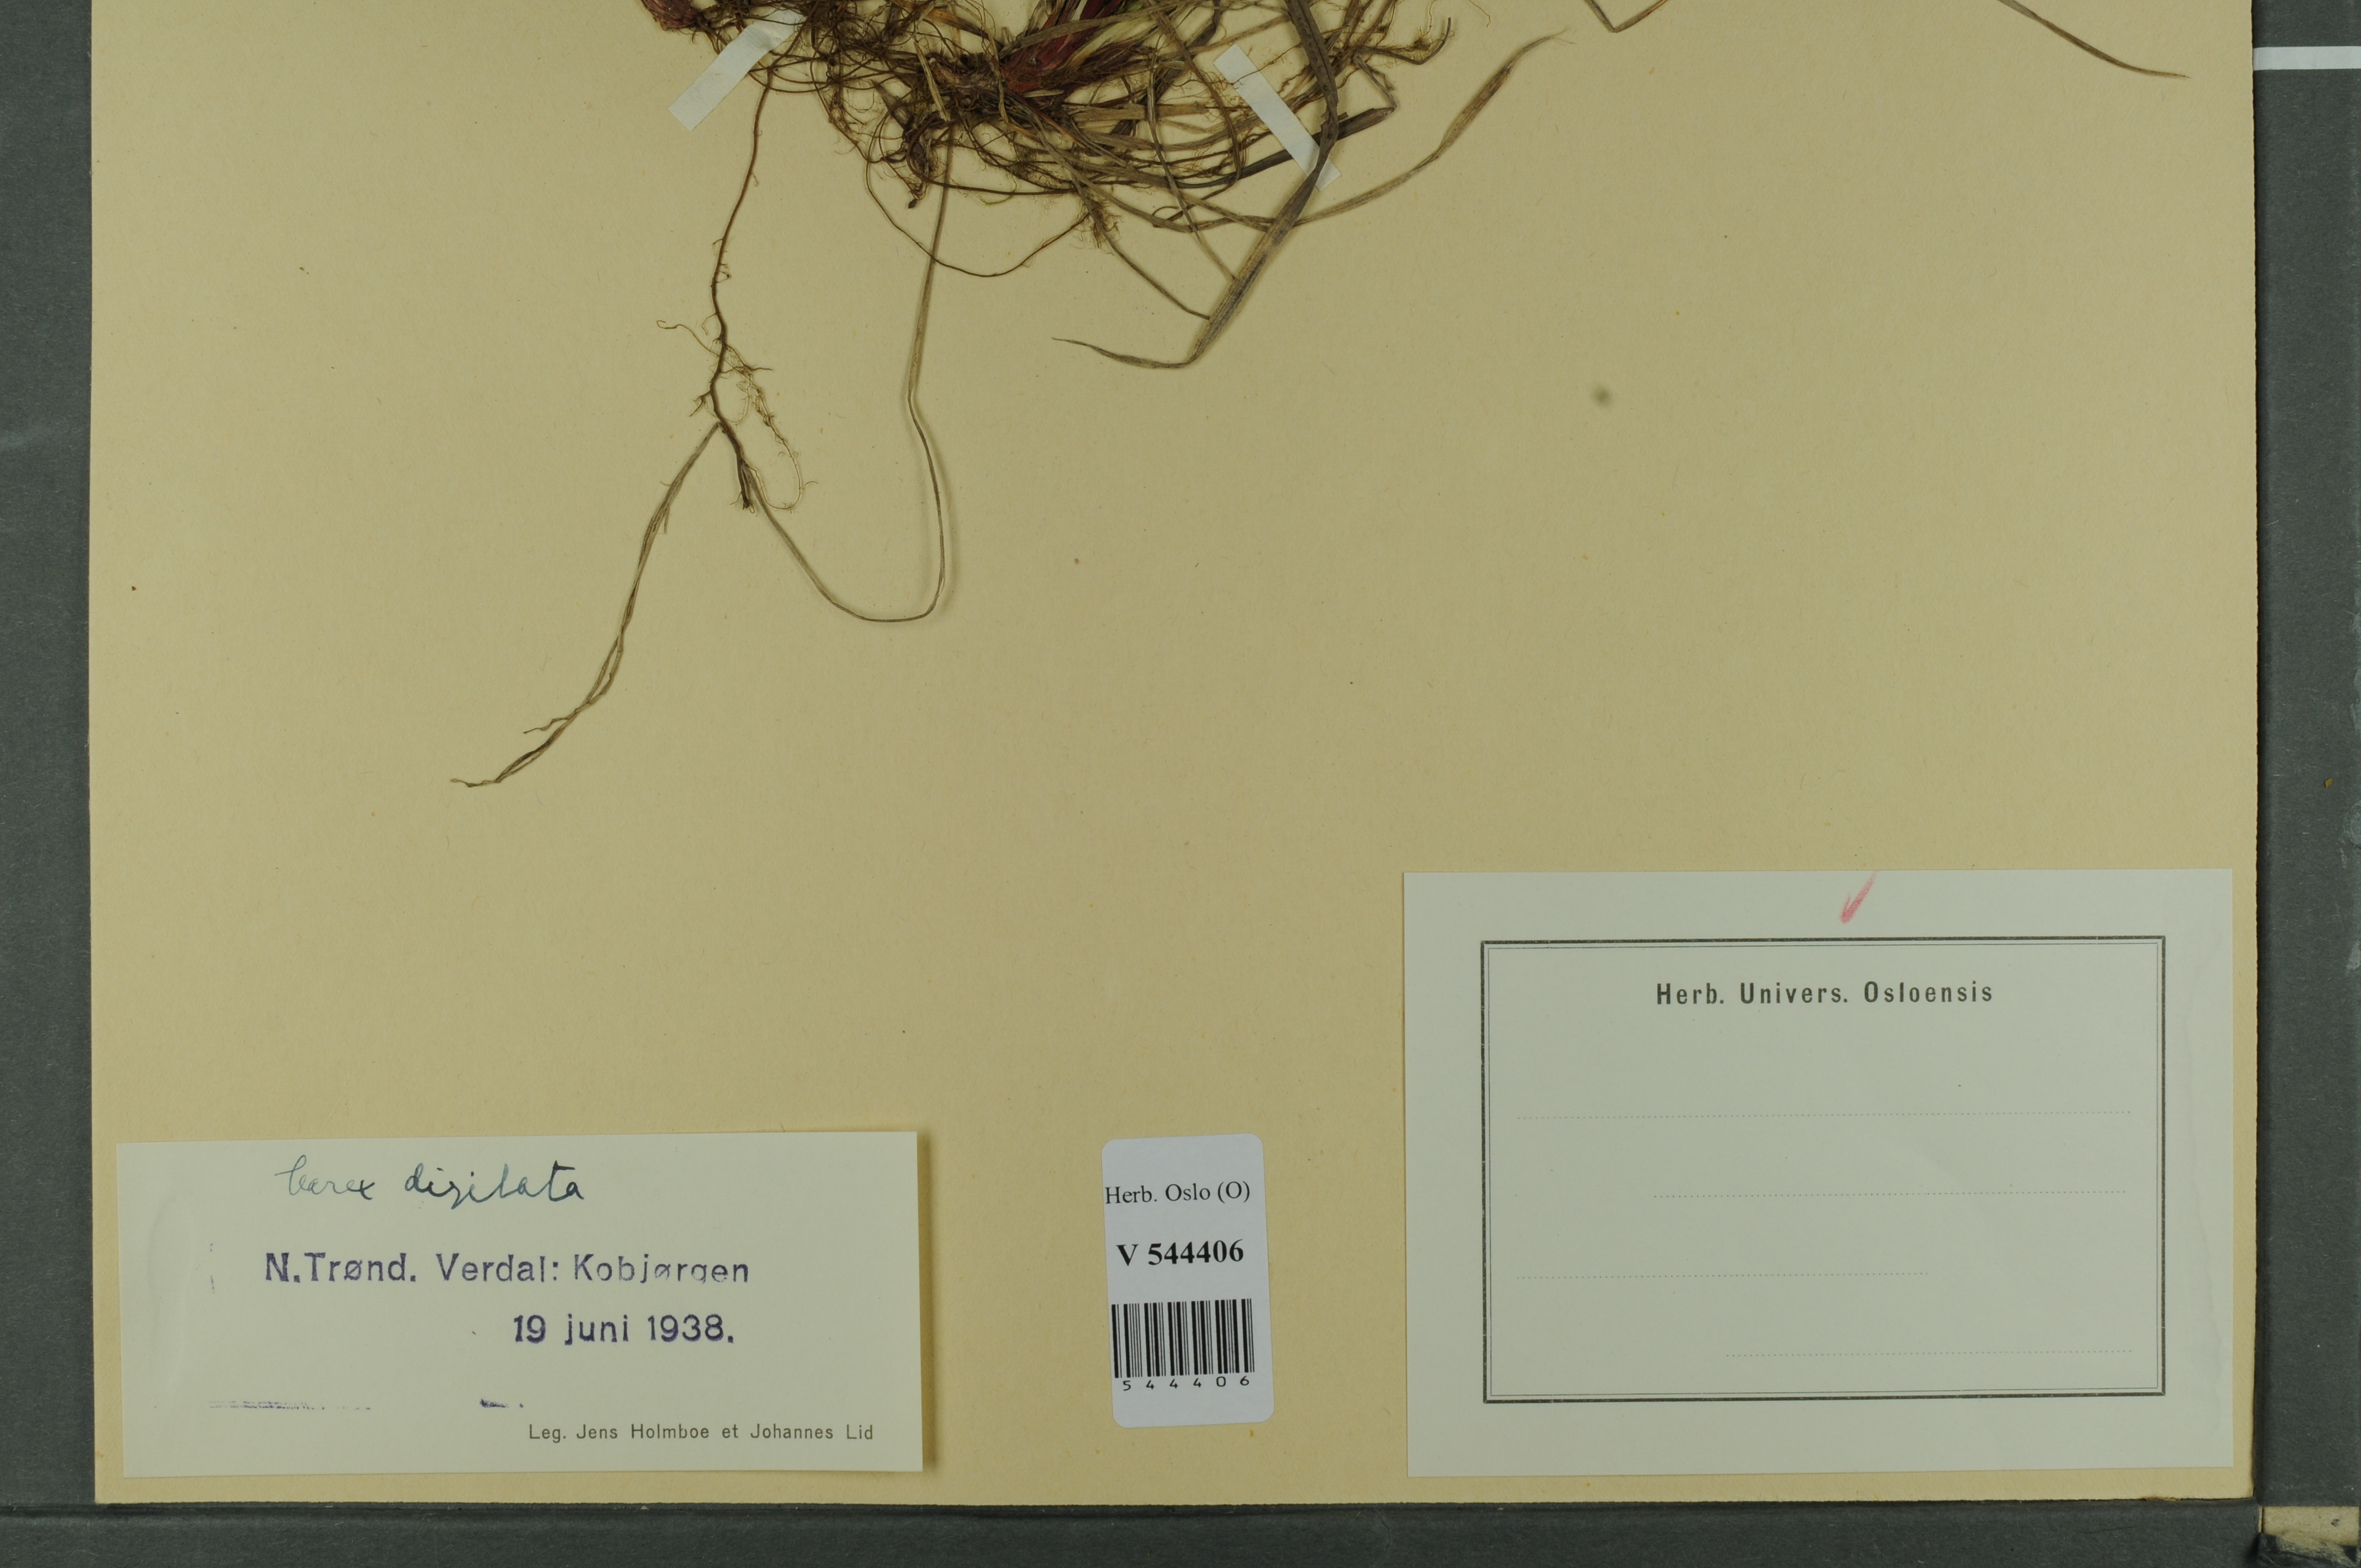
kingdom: Plantae
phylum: Tracheophyta
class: Liliopsida
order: Poales
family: Cyperaceae
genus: Carex
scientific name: Carex digitata
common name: Fingered sedge
